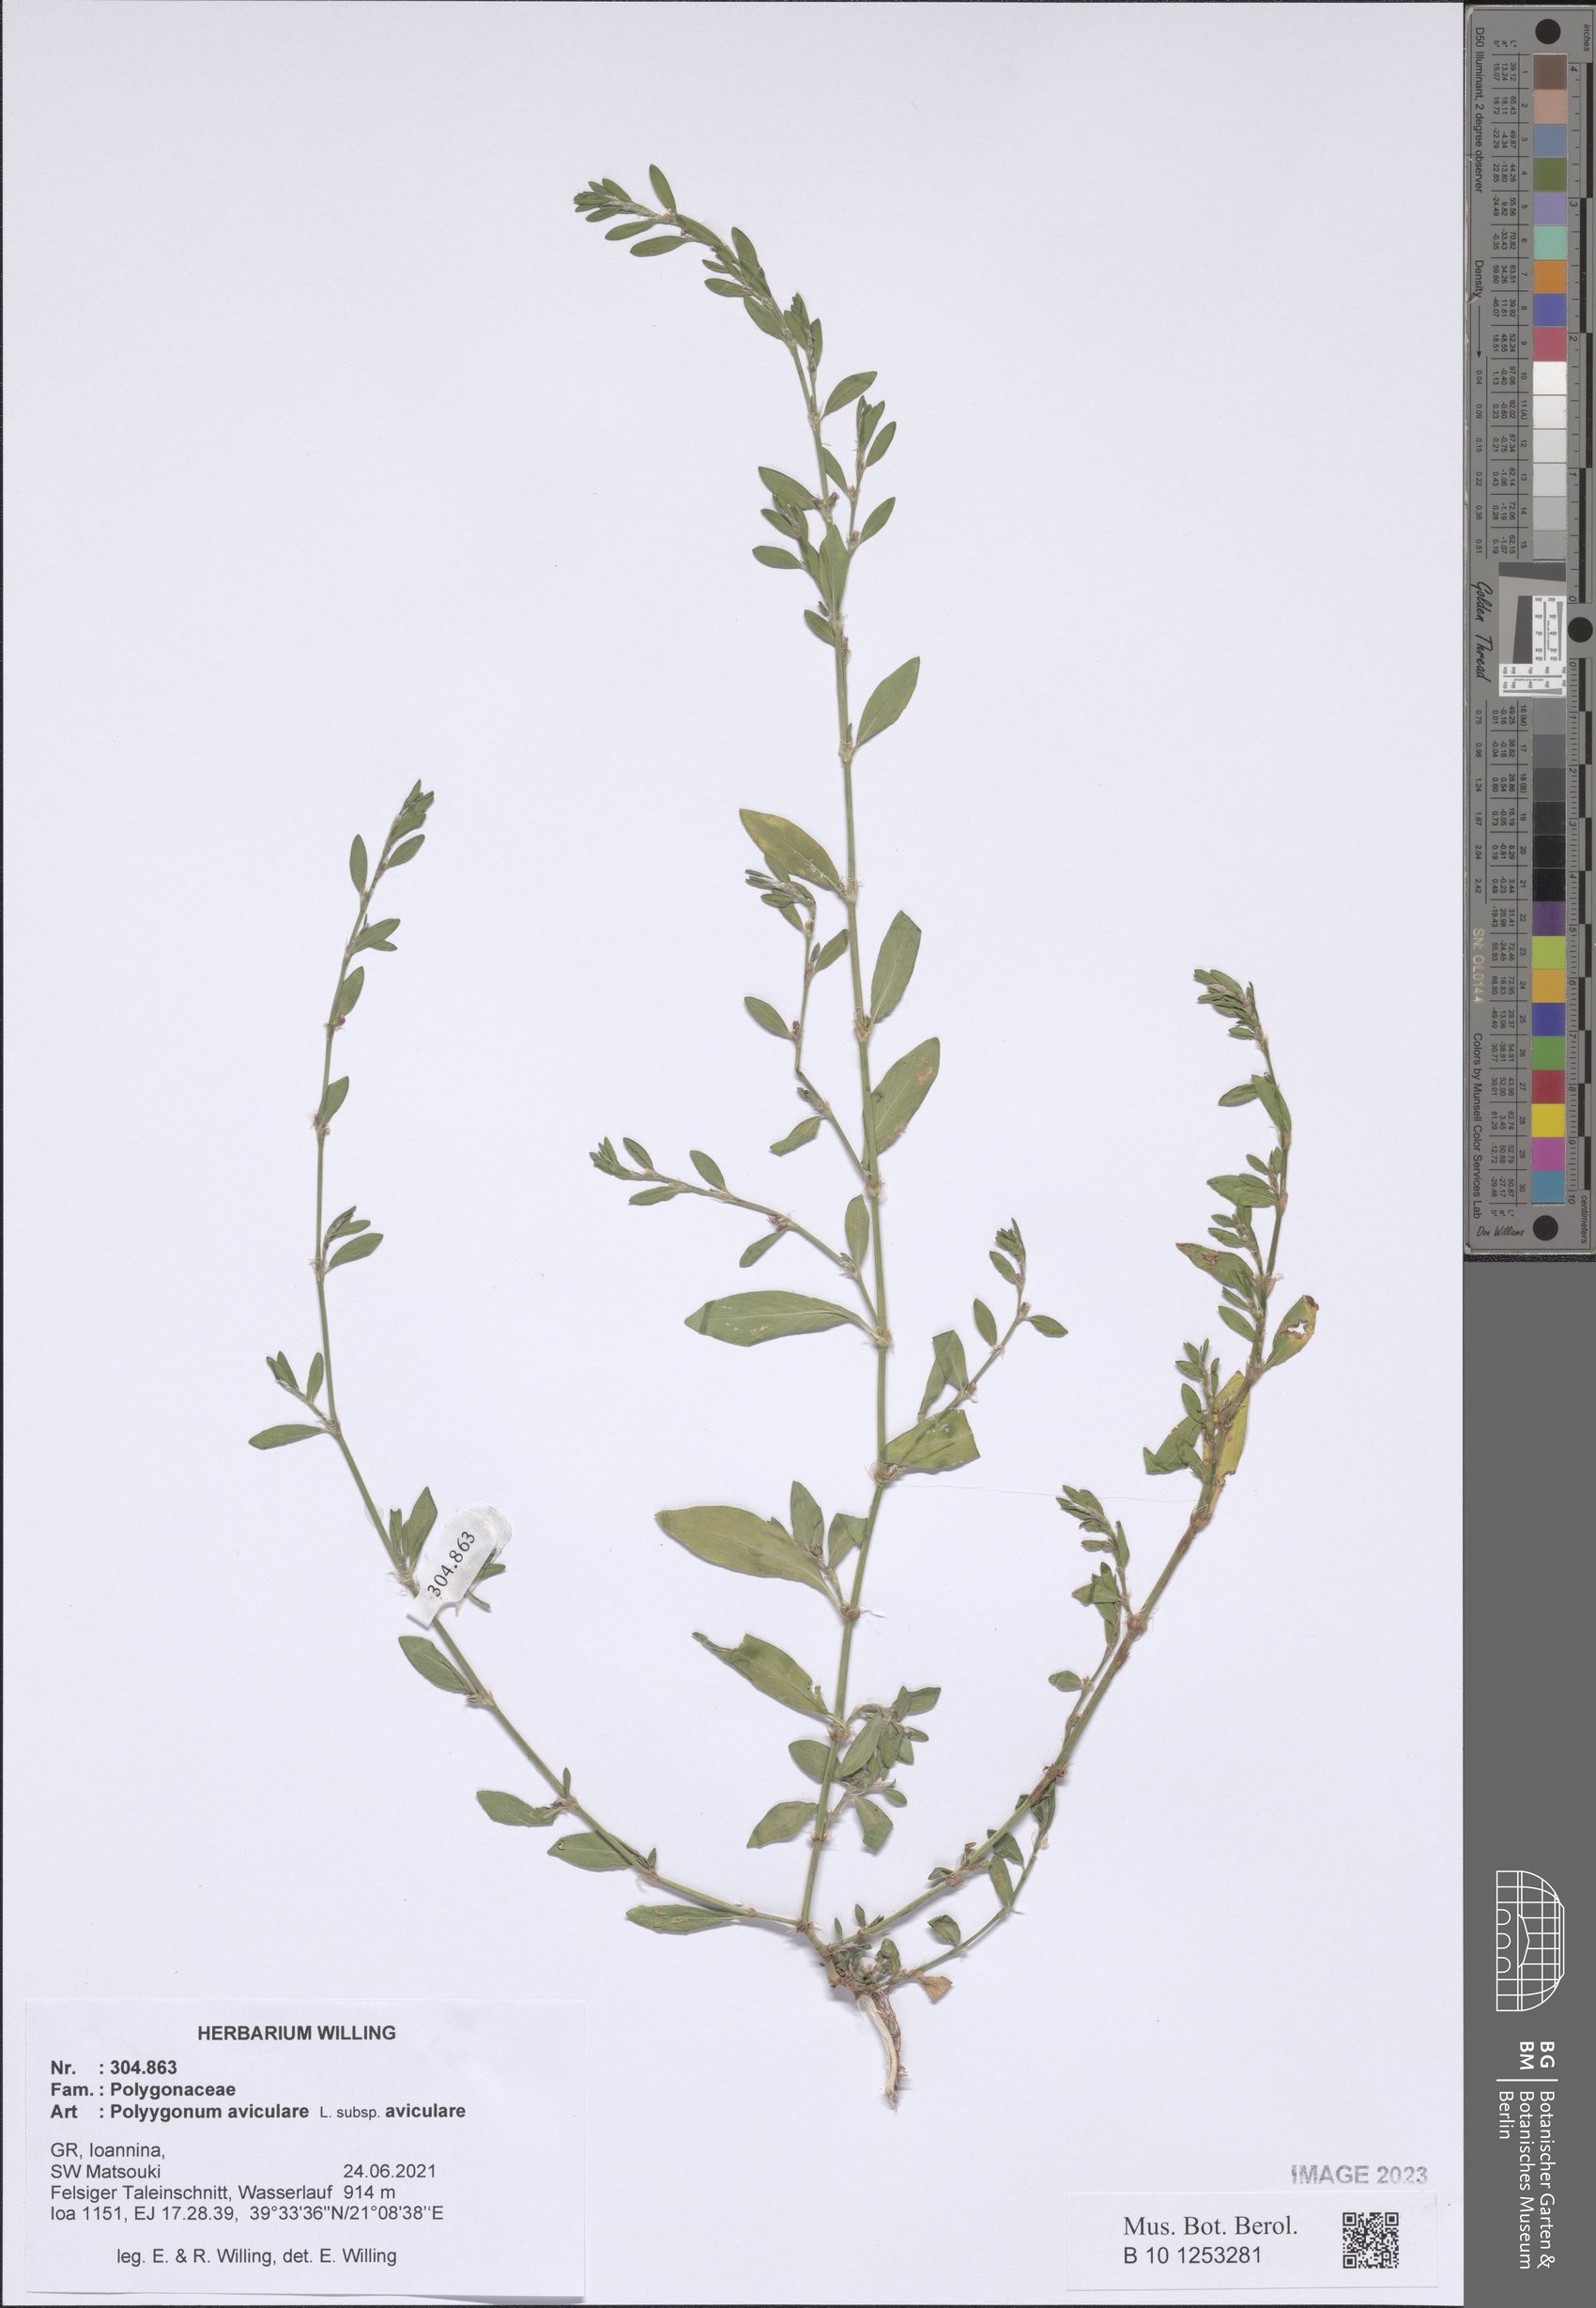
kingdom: Plantae
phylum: Tracheophyta
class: Magnoliopsida
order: Caryophyllales
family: Polygonaceae
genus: Polygonum
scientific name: Polygonum aviculare
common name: Prostrate knotweed
